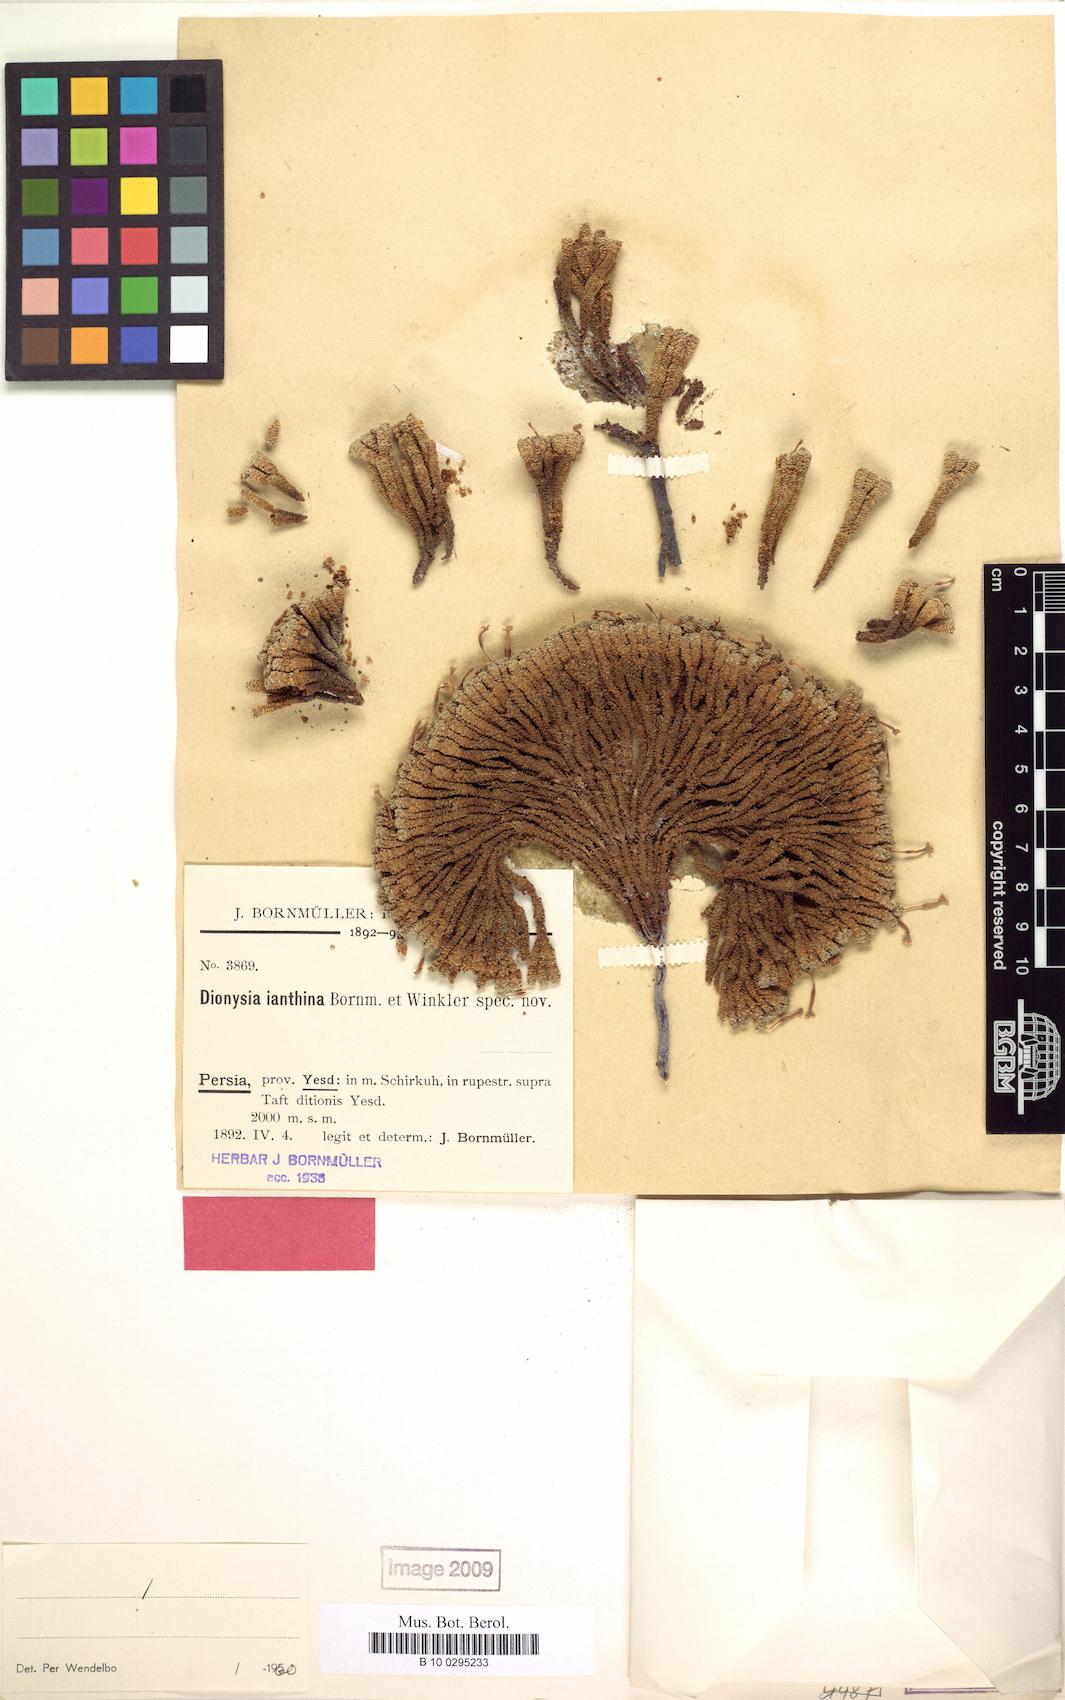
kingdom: Plantae
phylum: Tracheophyta
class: Magnoliopsida
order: Ericales
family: Primulaceae
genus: Dionysia
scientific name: Dionysia janthina
